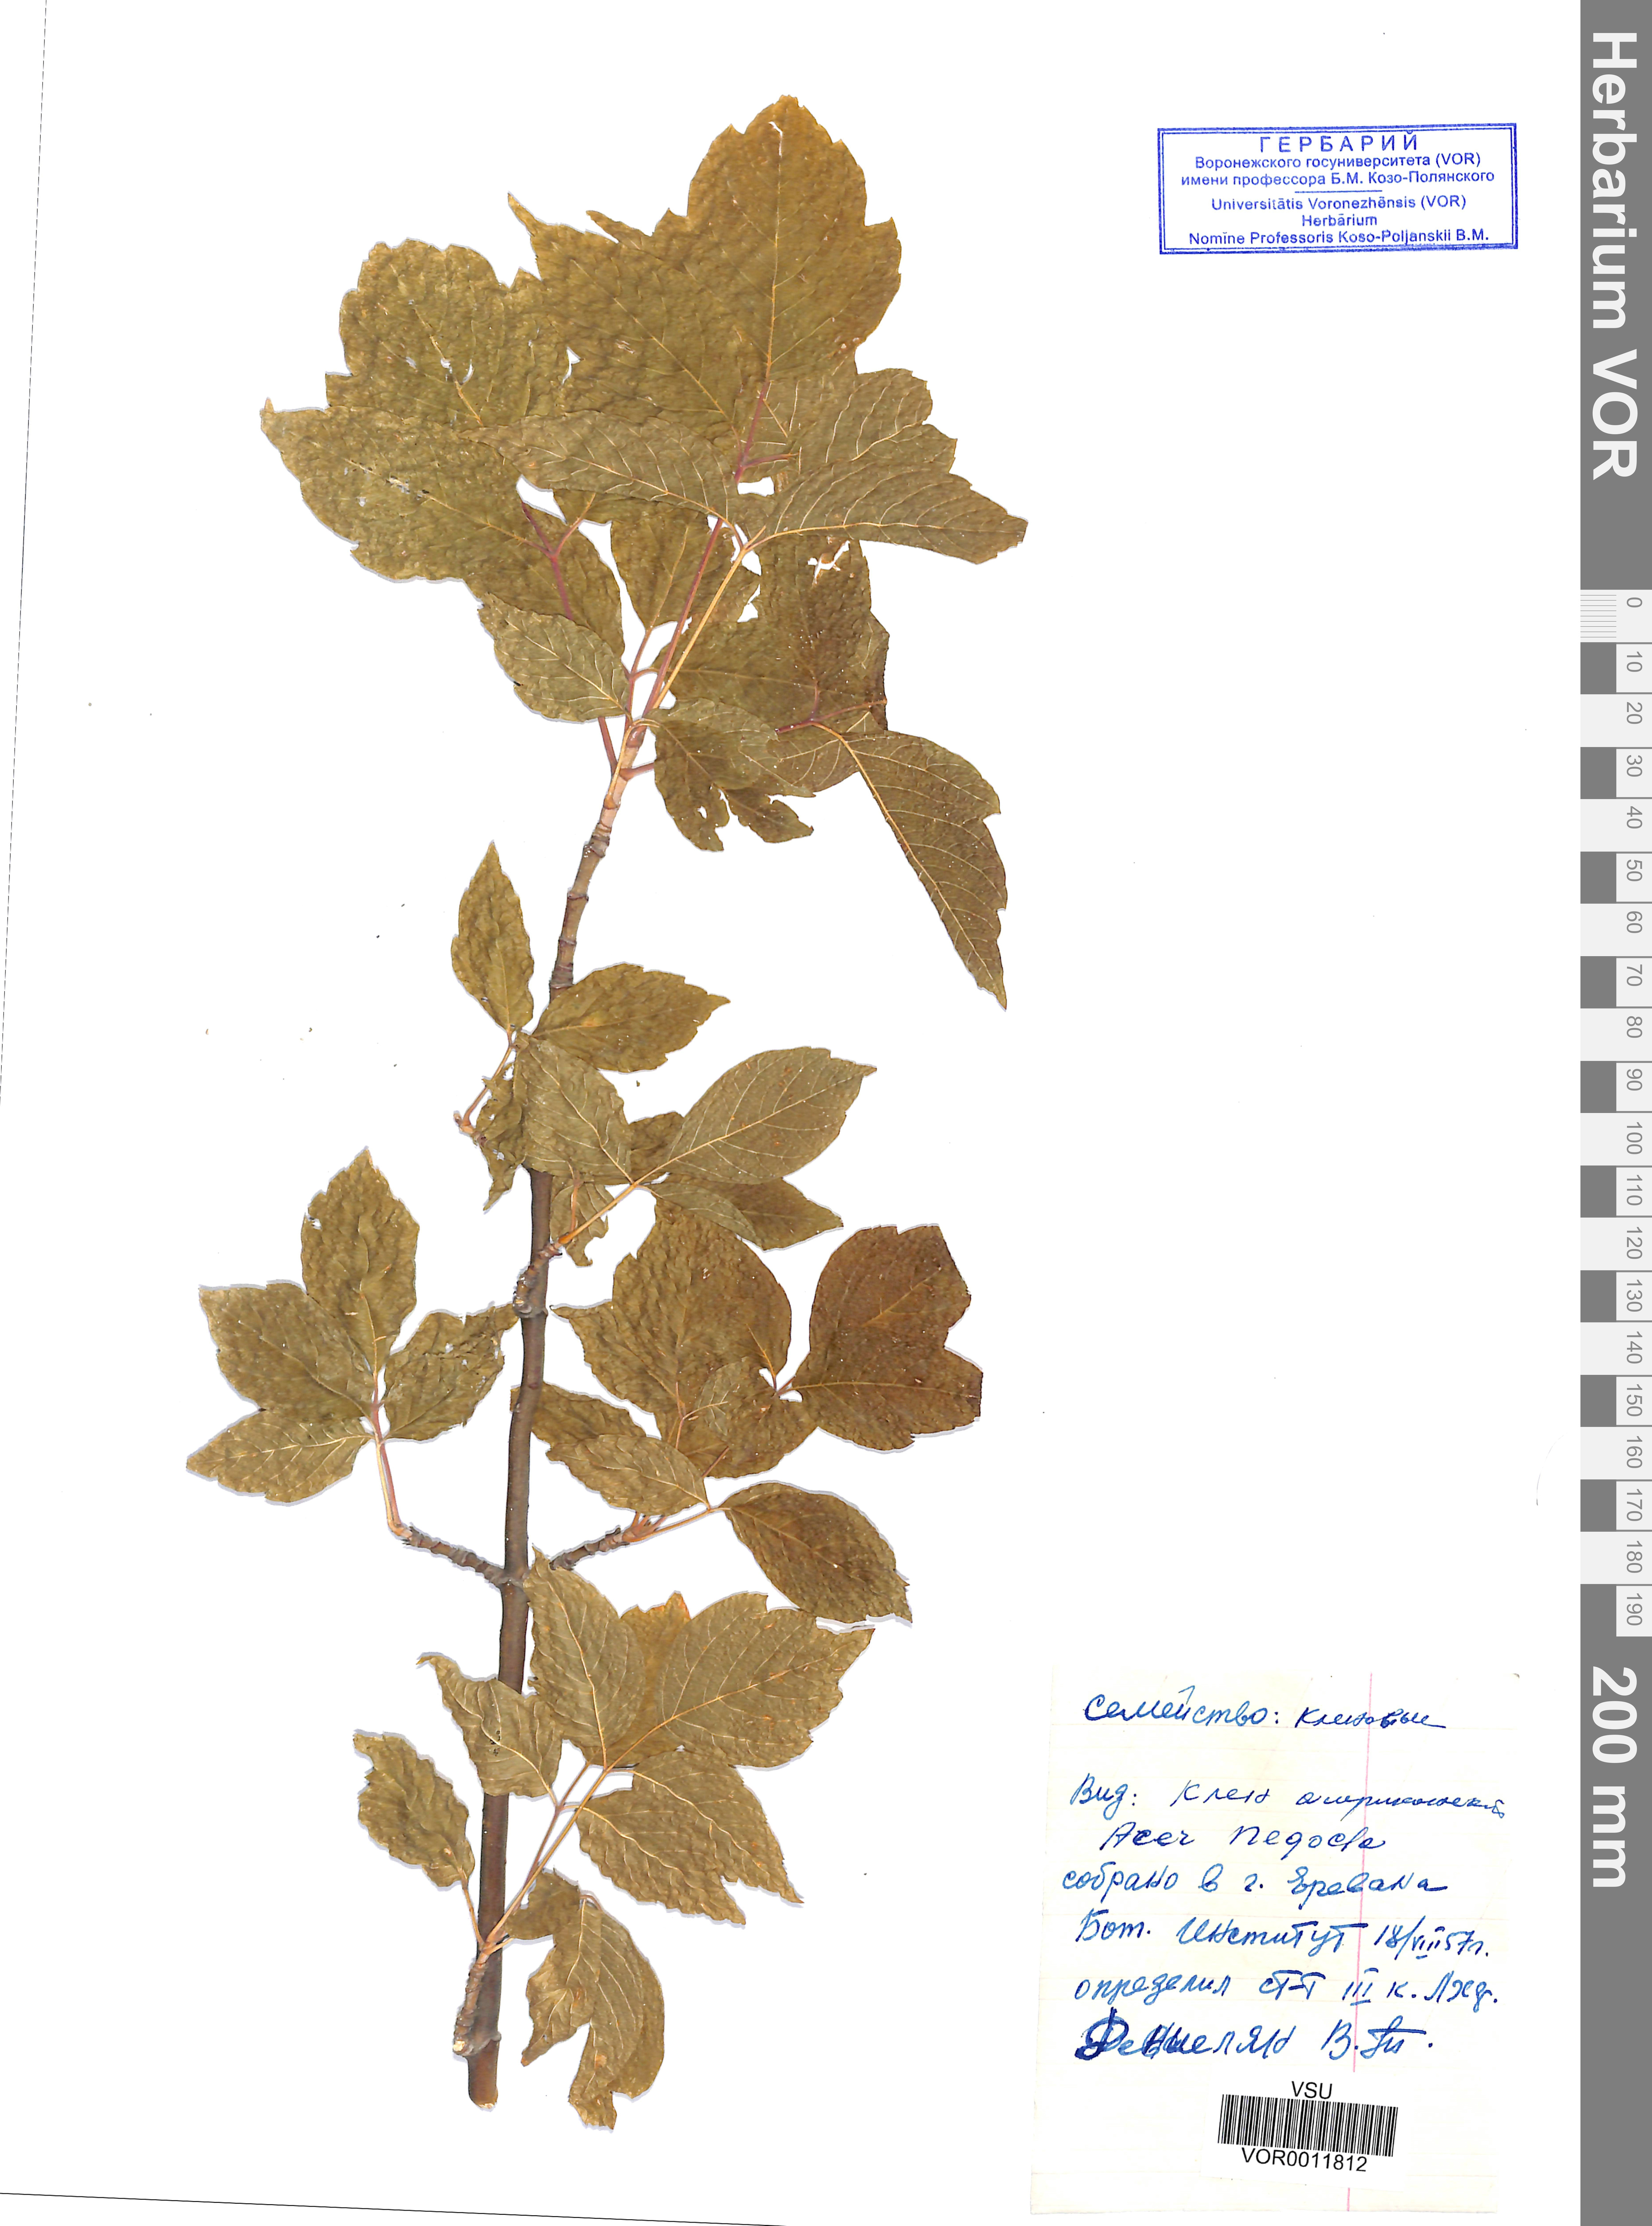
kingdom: Plantae
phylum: Tracheophyta
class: Magnoliopsida
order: Sapindales
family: Sapindaceae
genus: Acer
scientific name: Acer negundo
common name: Ashleaf maple
